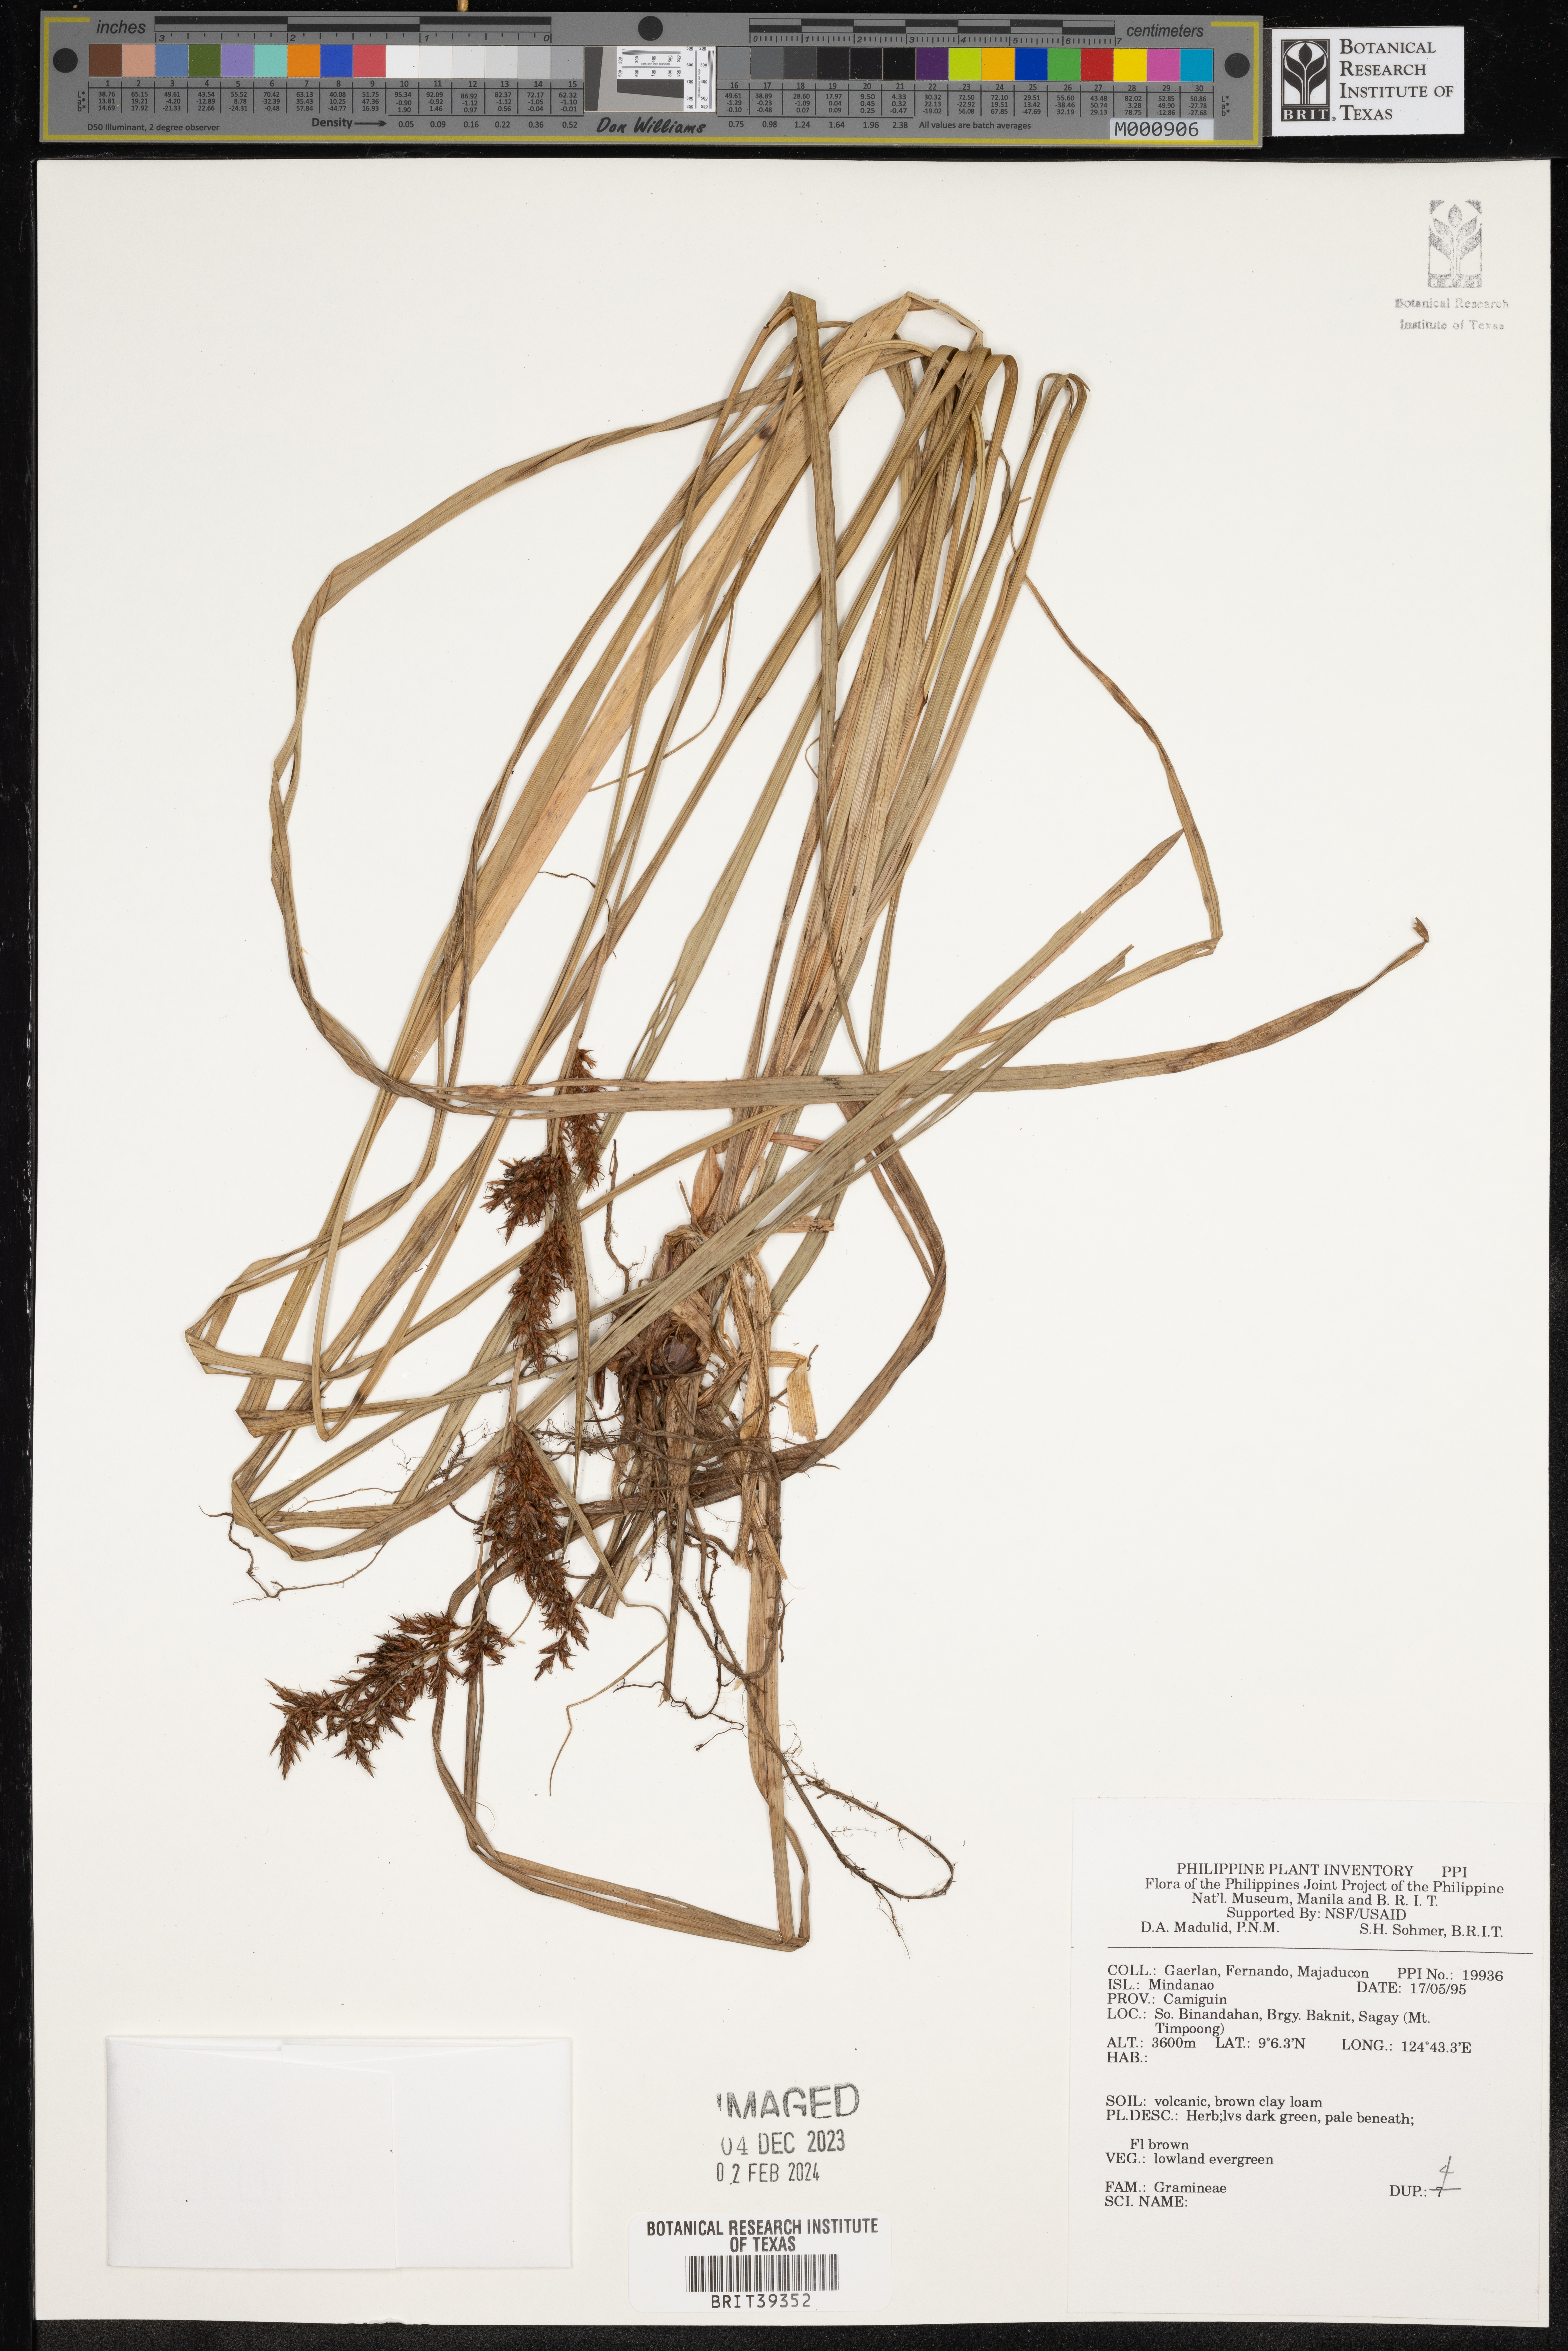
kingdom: Plantae
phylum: Tracheophyta
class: Liliopsida
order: Poales
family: Poaceae
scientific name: Poaceae
